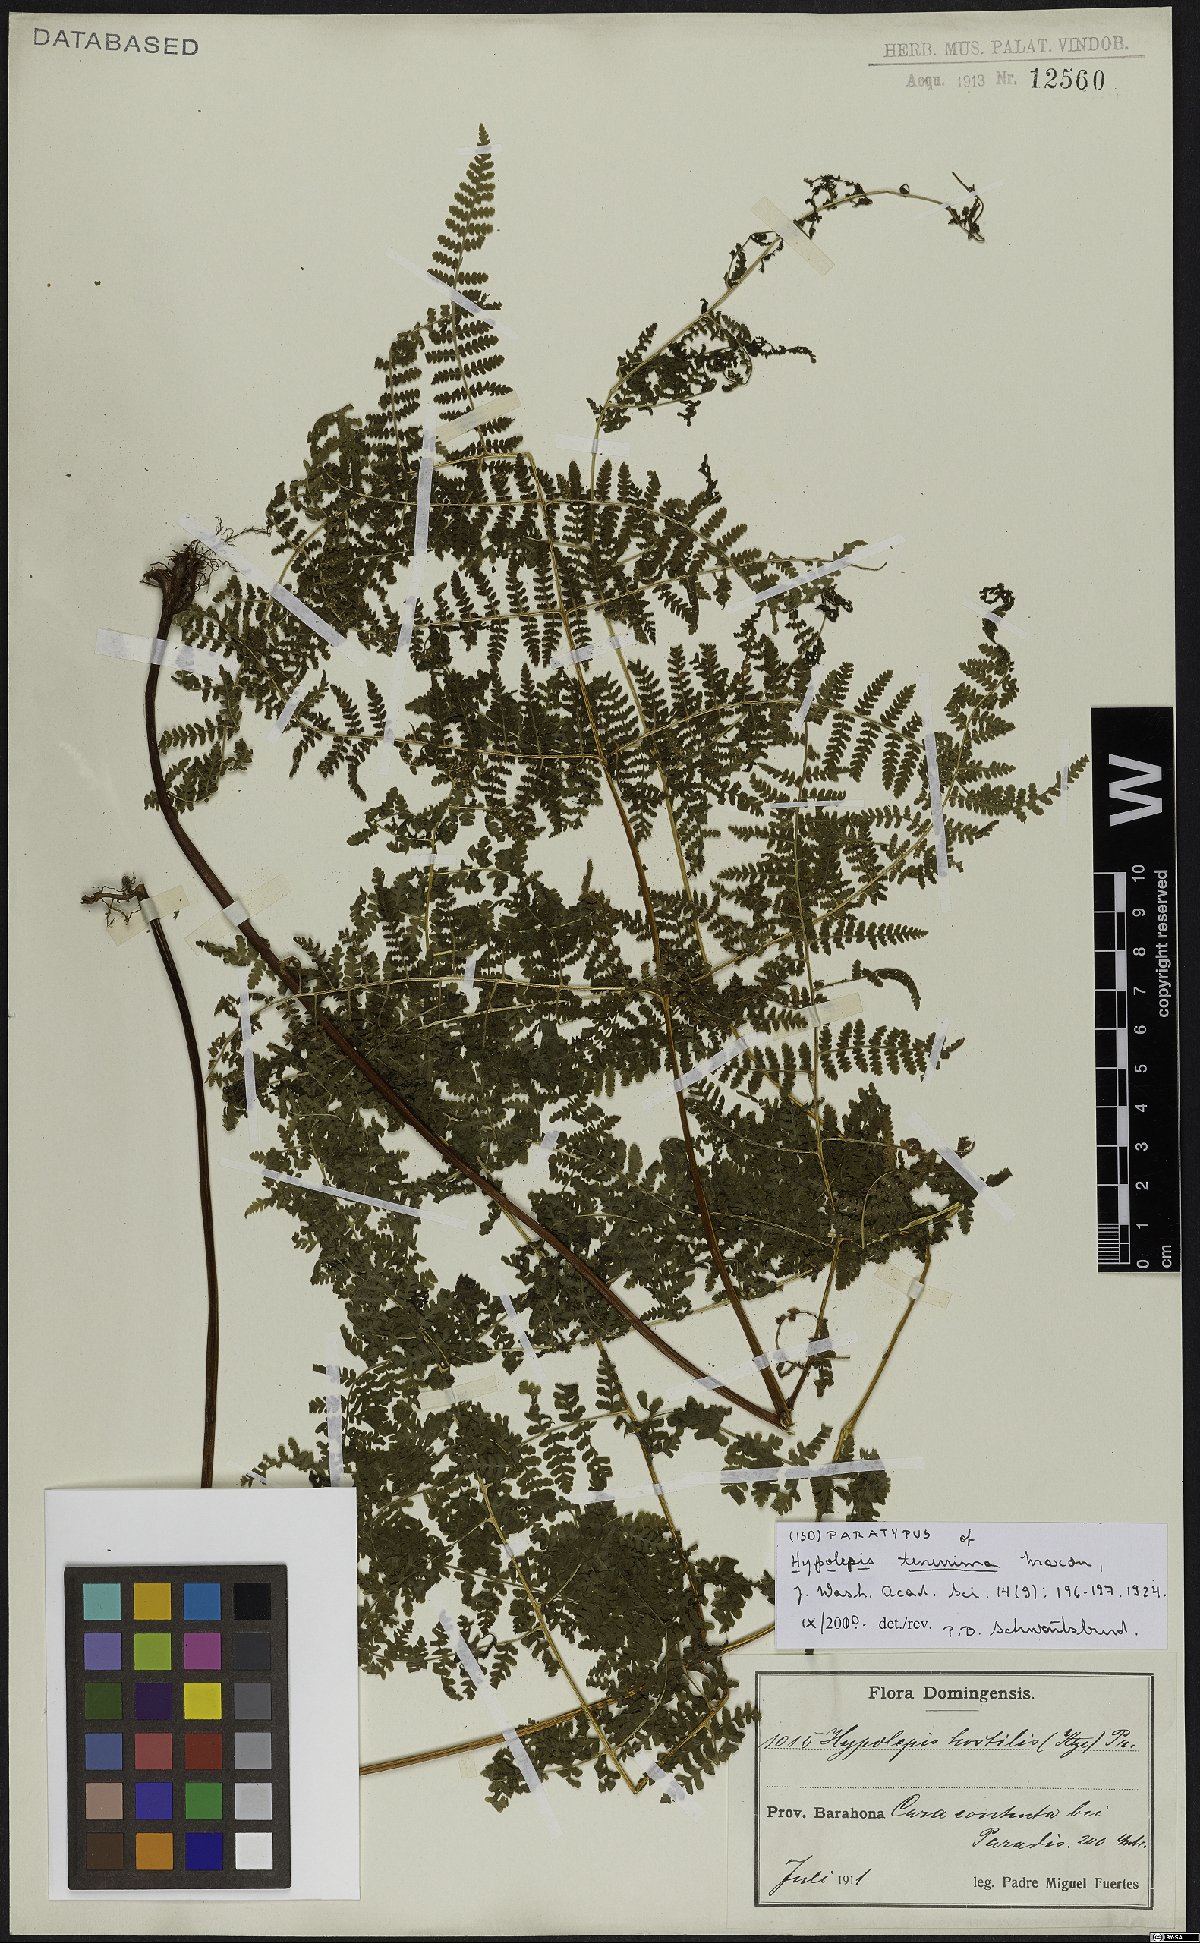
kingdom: Plantae
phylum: Tracheophyta
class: Polypodiopsida
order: Polypodiales
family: Dennstaedtiaceae
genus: Hypolepis
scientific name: Hypolepis tenerrima
